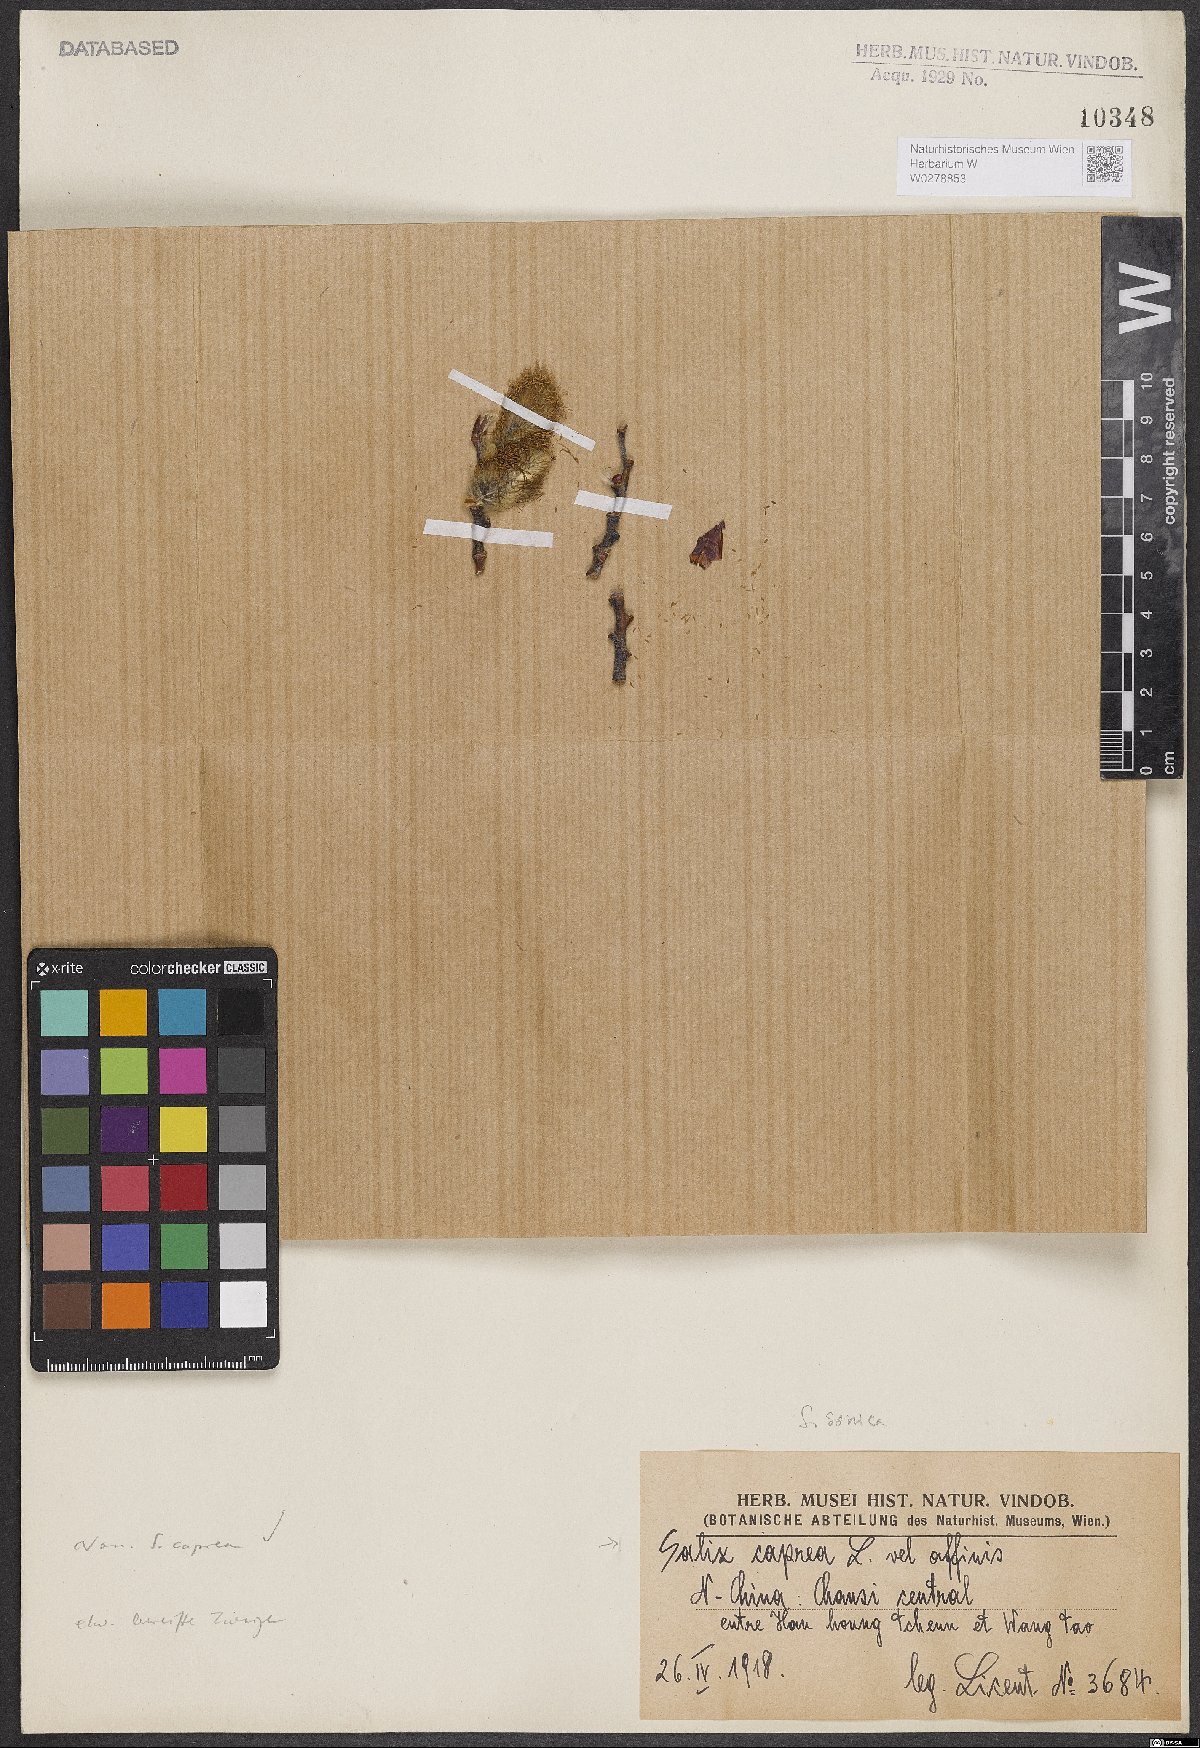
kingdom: Plantae
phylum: Tracheophyta
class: Magnoliopsida
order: Malpighiales
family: Salicaceae
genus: Salix
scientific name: Salix caprea
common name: Goat willow
